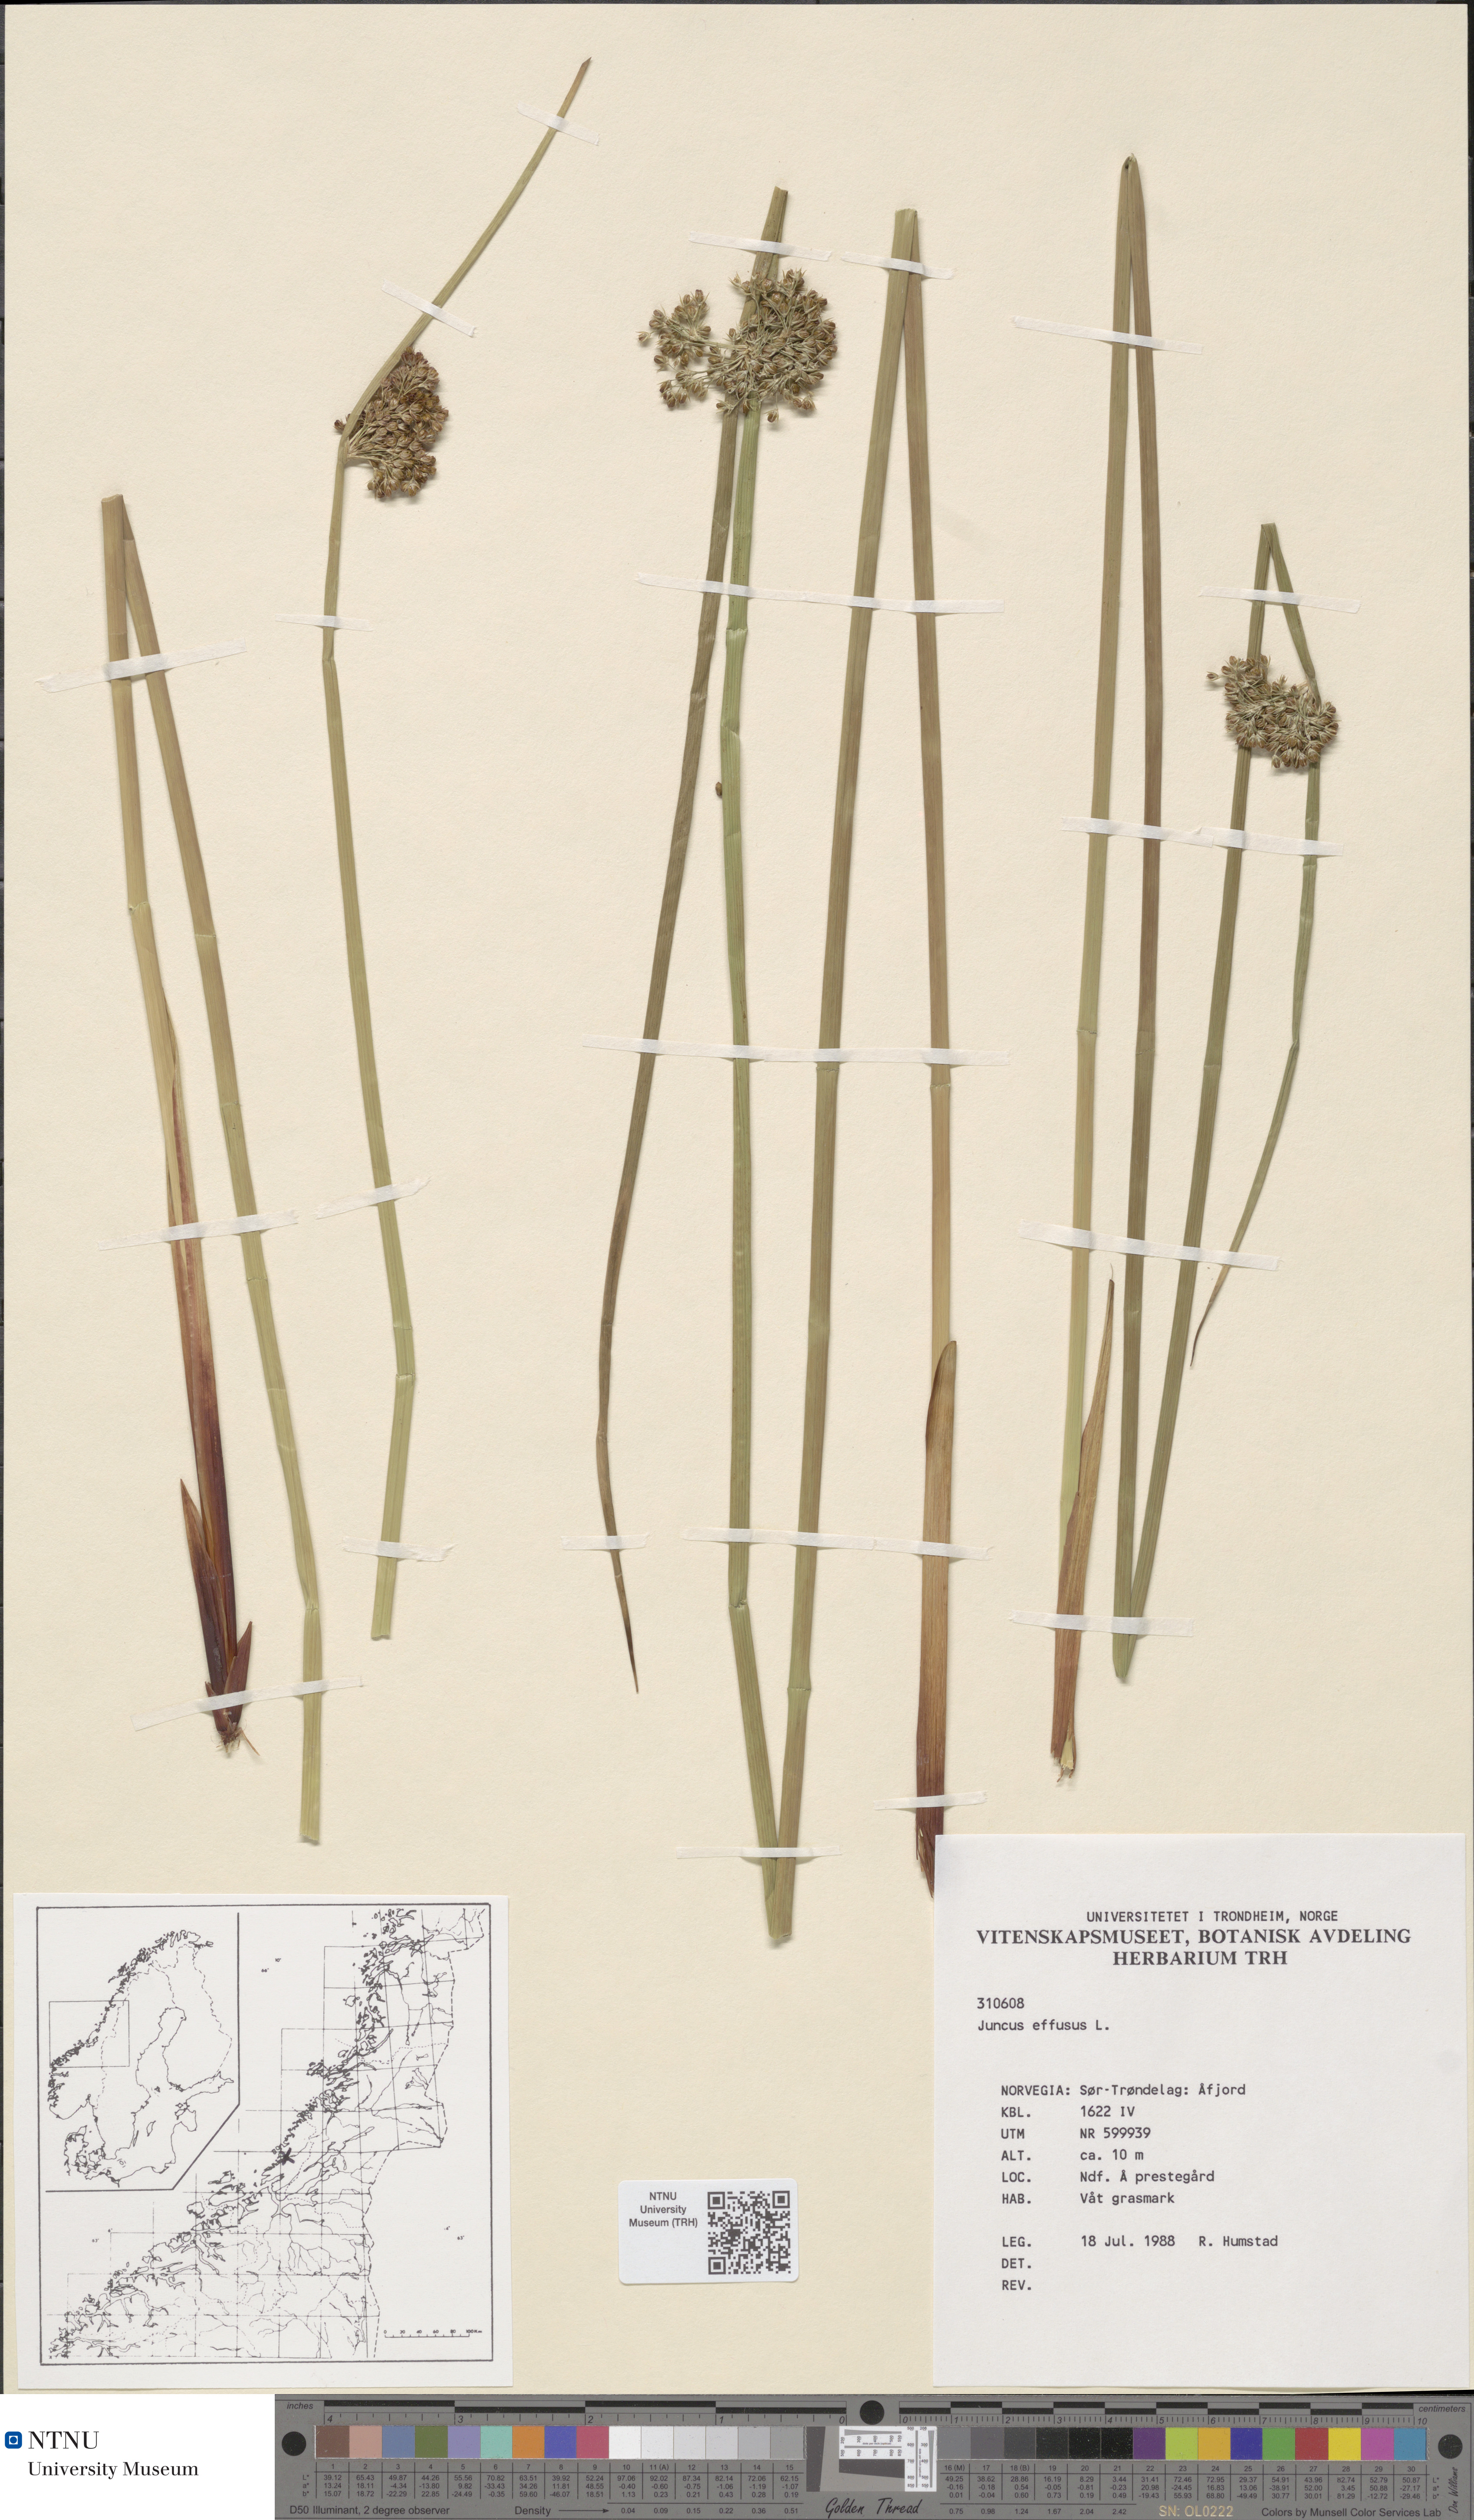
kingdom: Plantae
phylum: Tracheophyta
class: Liliopsida
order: Poales
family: Juncaceae
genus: Juncus
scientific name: Juncus effusus
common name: Soft rush
